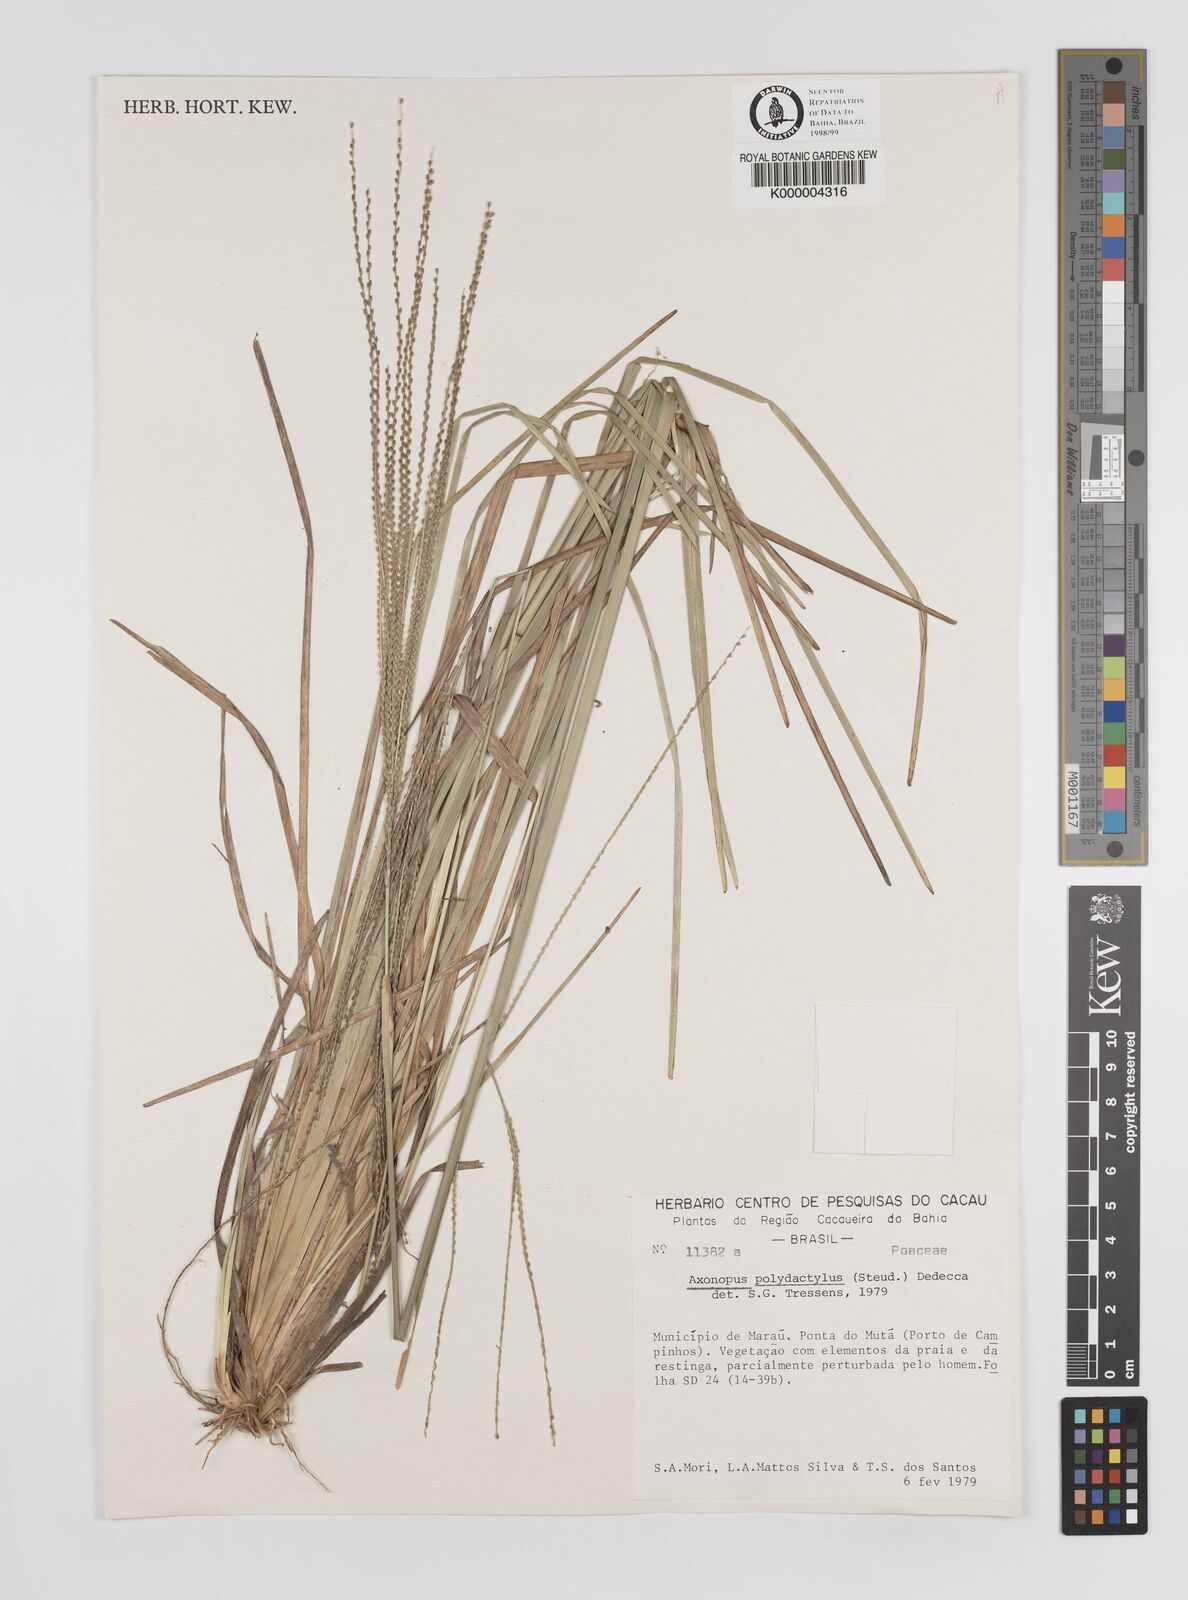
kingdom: Plantae
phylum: Tracheophyta
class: Liliopsida
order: Poales
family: Poaceae
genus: Axonopus
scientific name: Axonopus polydactylus
